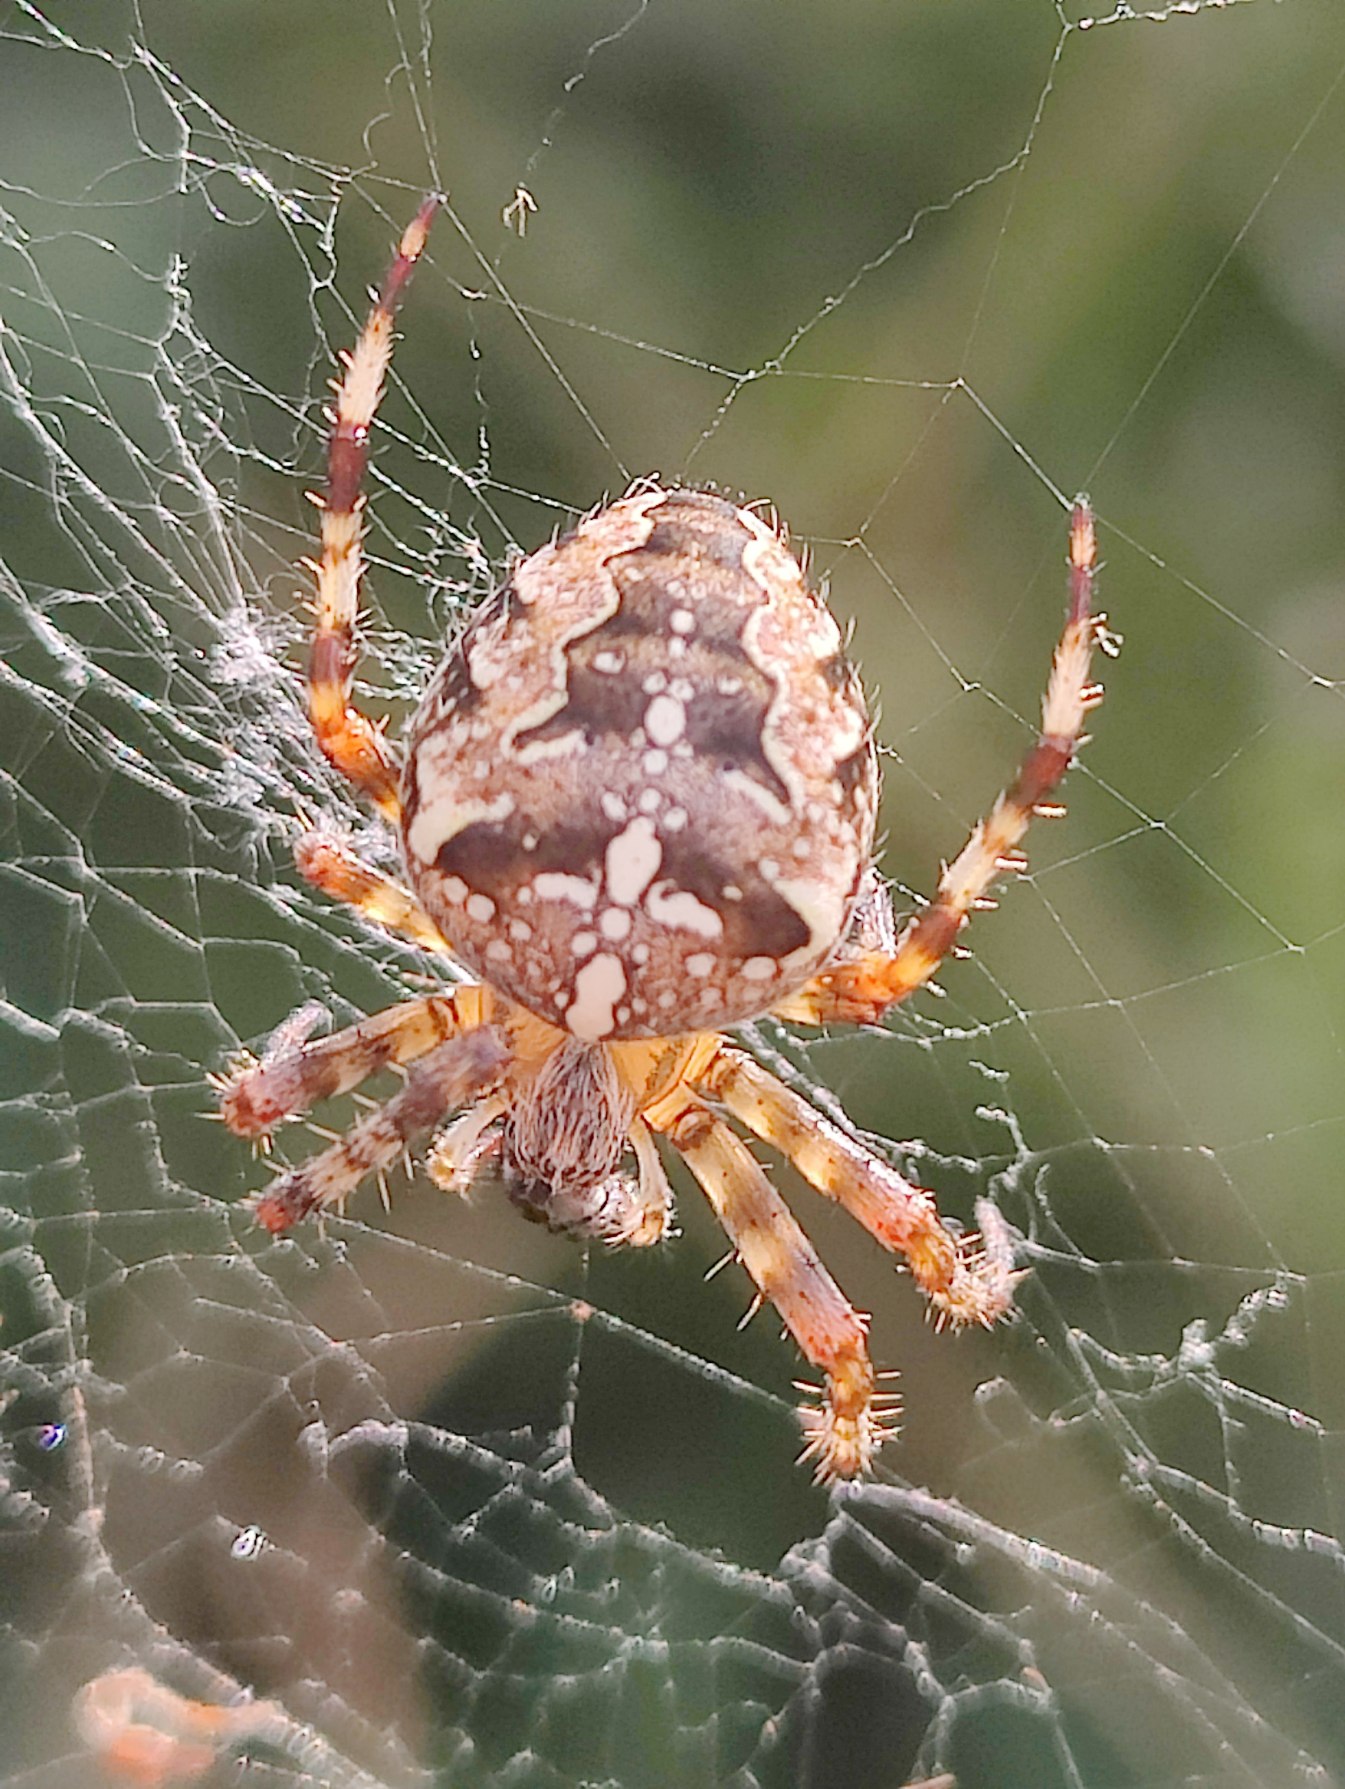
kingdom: Animalia
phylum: Arthropoda
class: Arachnida
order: Araneae
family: Araneidae
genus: Araneus
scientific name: Araneus diadematus
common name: Korsedderkop
